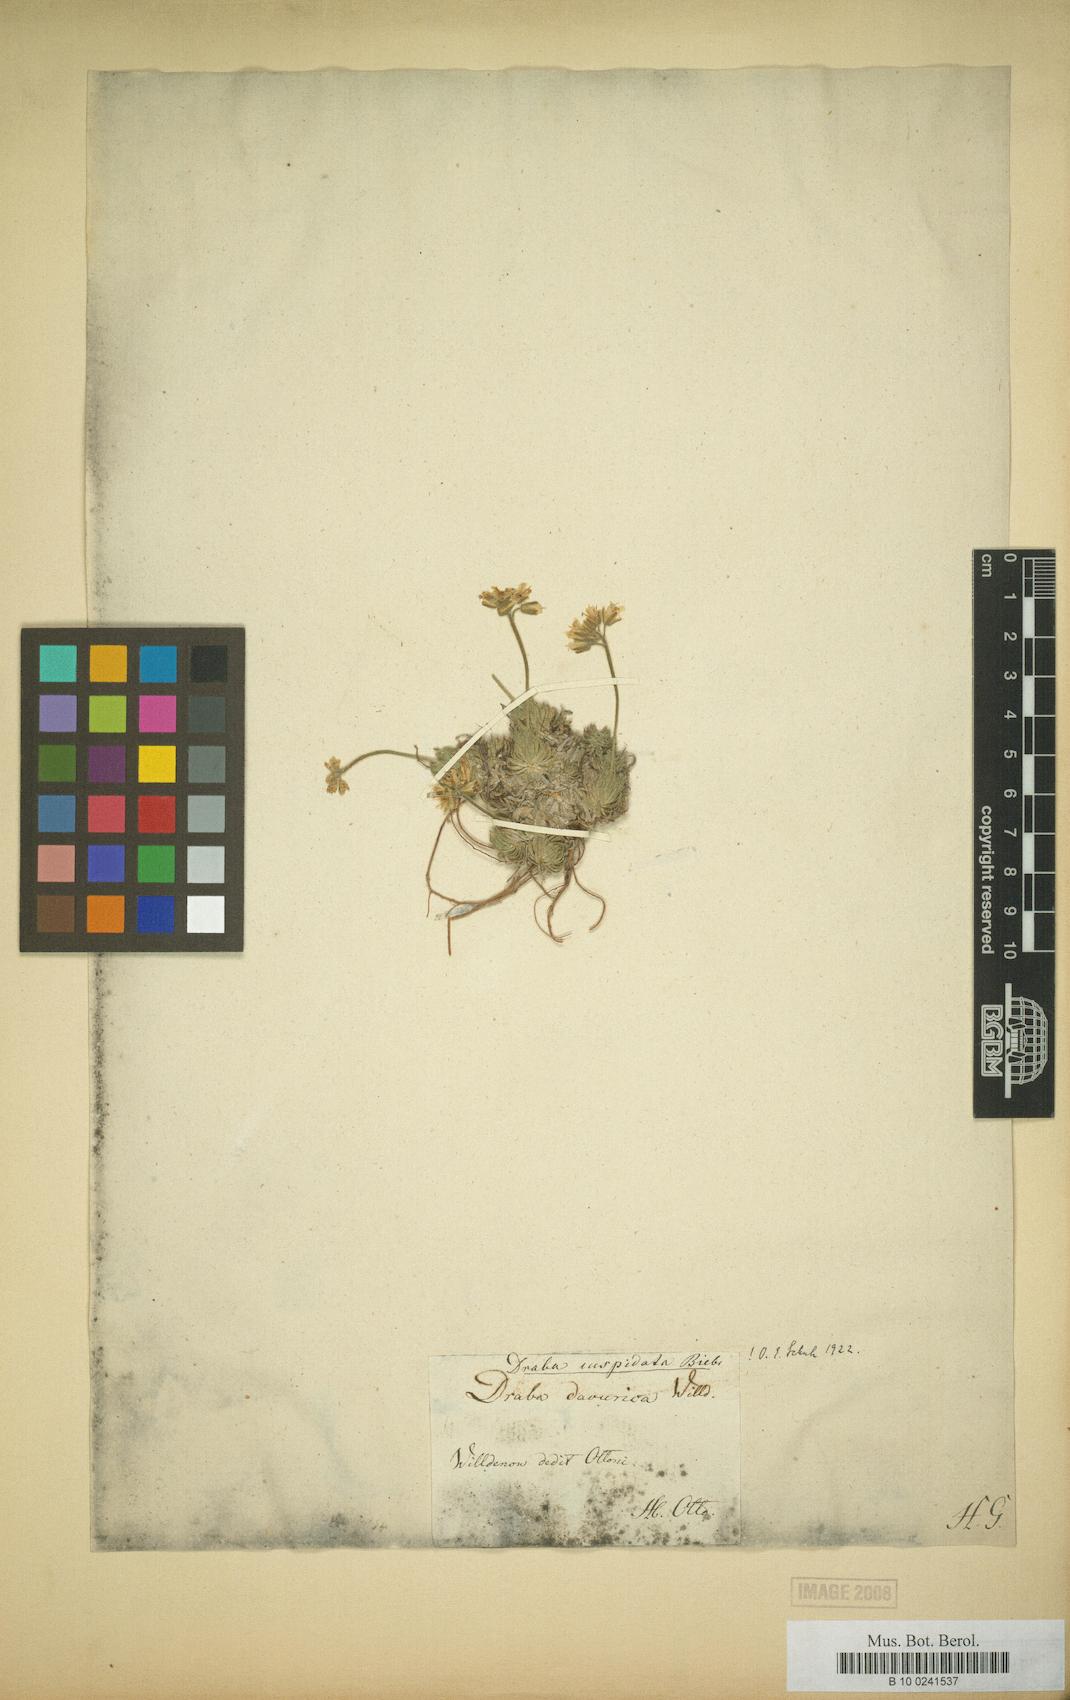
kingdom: Plantae
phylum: Tracheophyta
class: Magnoliopsida
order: Brassicales
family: Brassicaceae
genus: Draba
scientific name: Draba cuspidata
